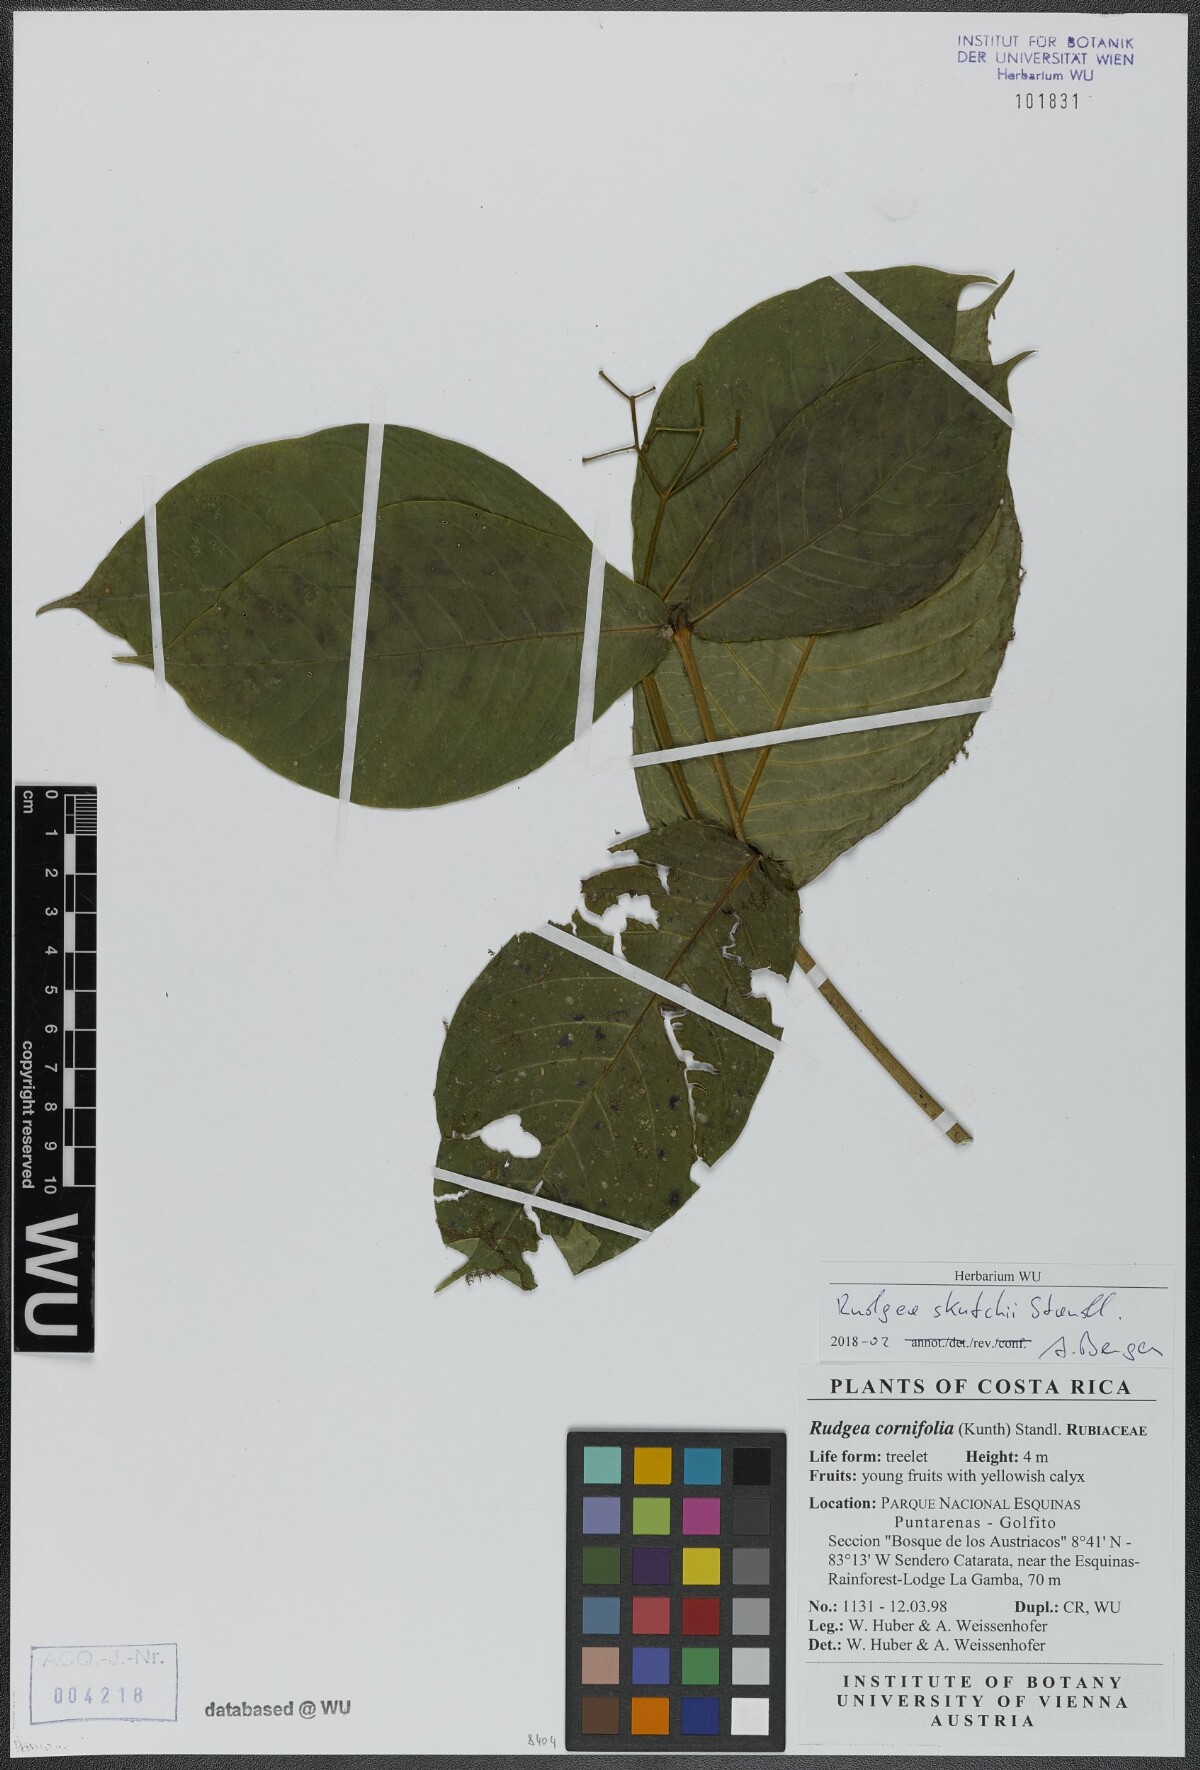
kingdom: Plantae
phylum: Tracheophyta
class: Magnoliopsida
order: Gentianales
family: Rubiaceae
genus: Rudgea
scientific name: Rudgea skutchii
